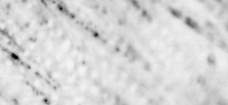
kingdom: Animalia
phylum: Chordata
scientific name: Chordata
